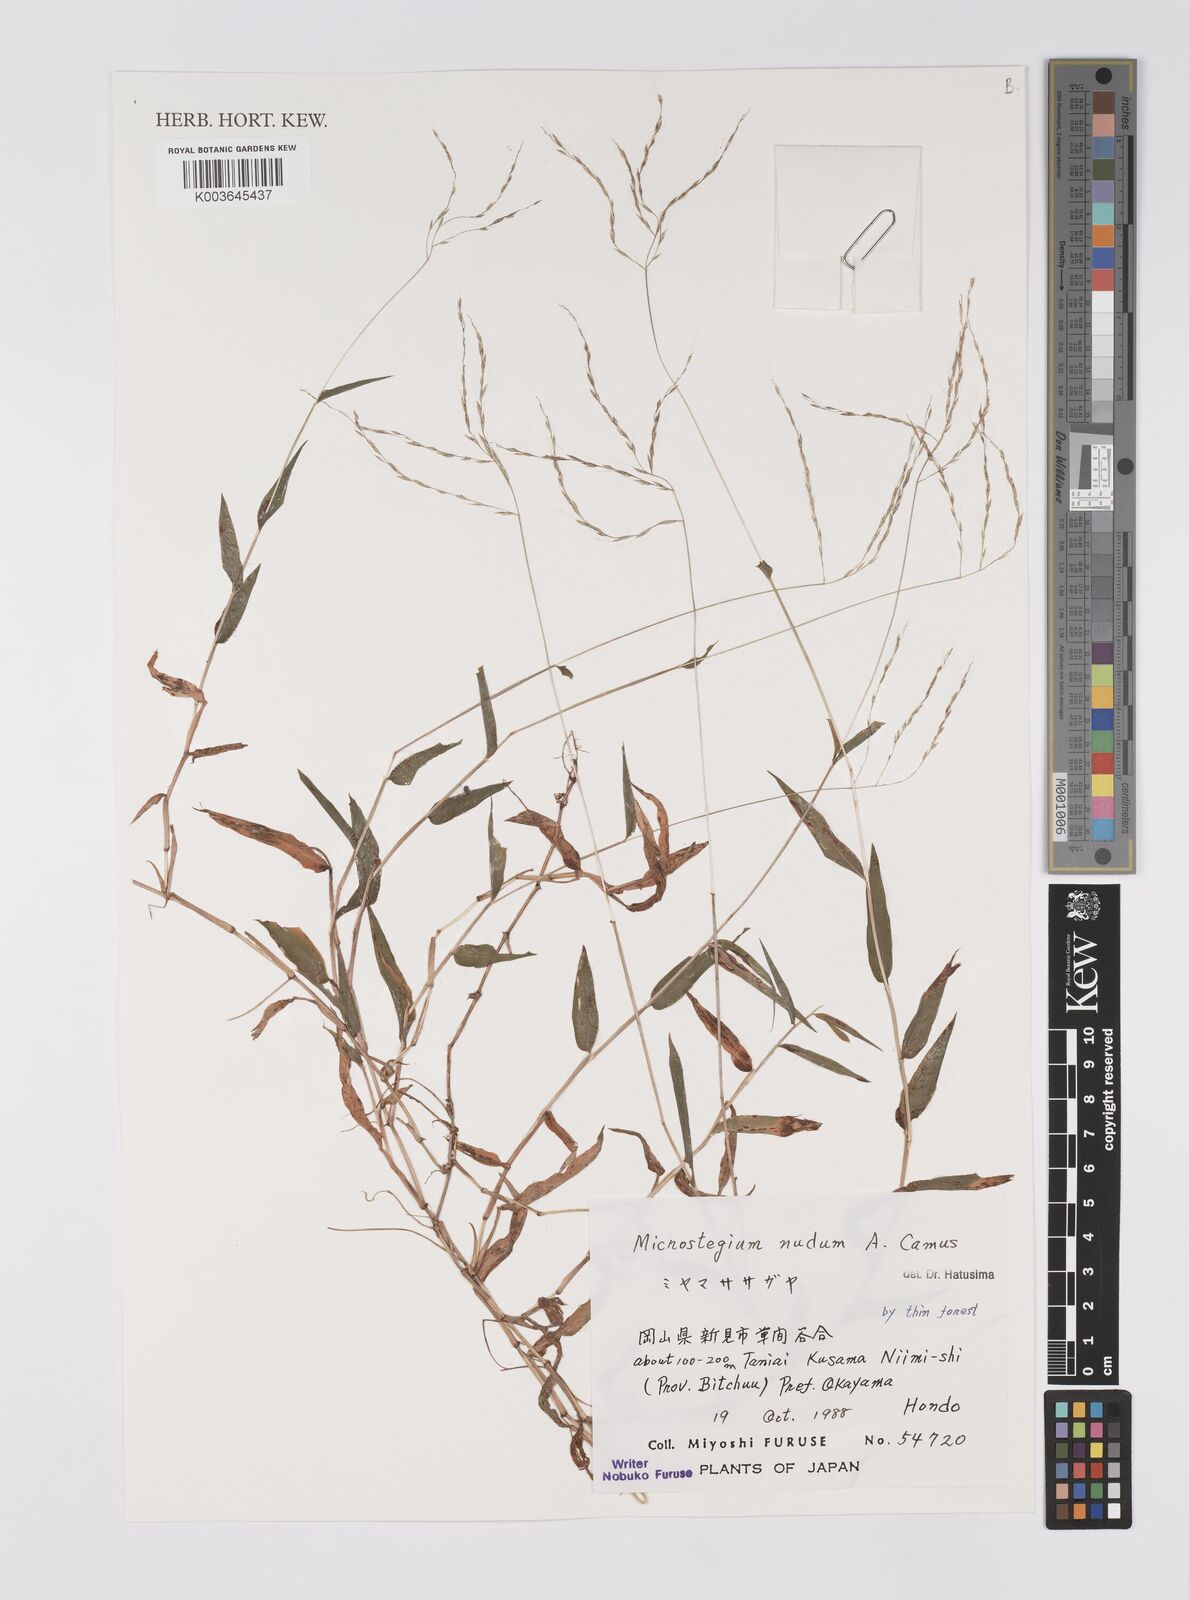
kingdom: Plantae
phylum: Tracheophyta
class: Liliopsida
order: Poales
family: Poaceae
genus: Microstegium
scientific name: Microstegium nudum
